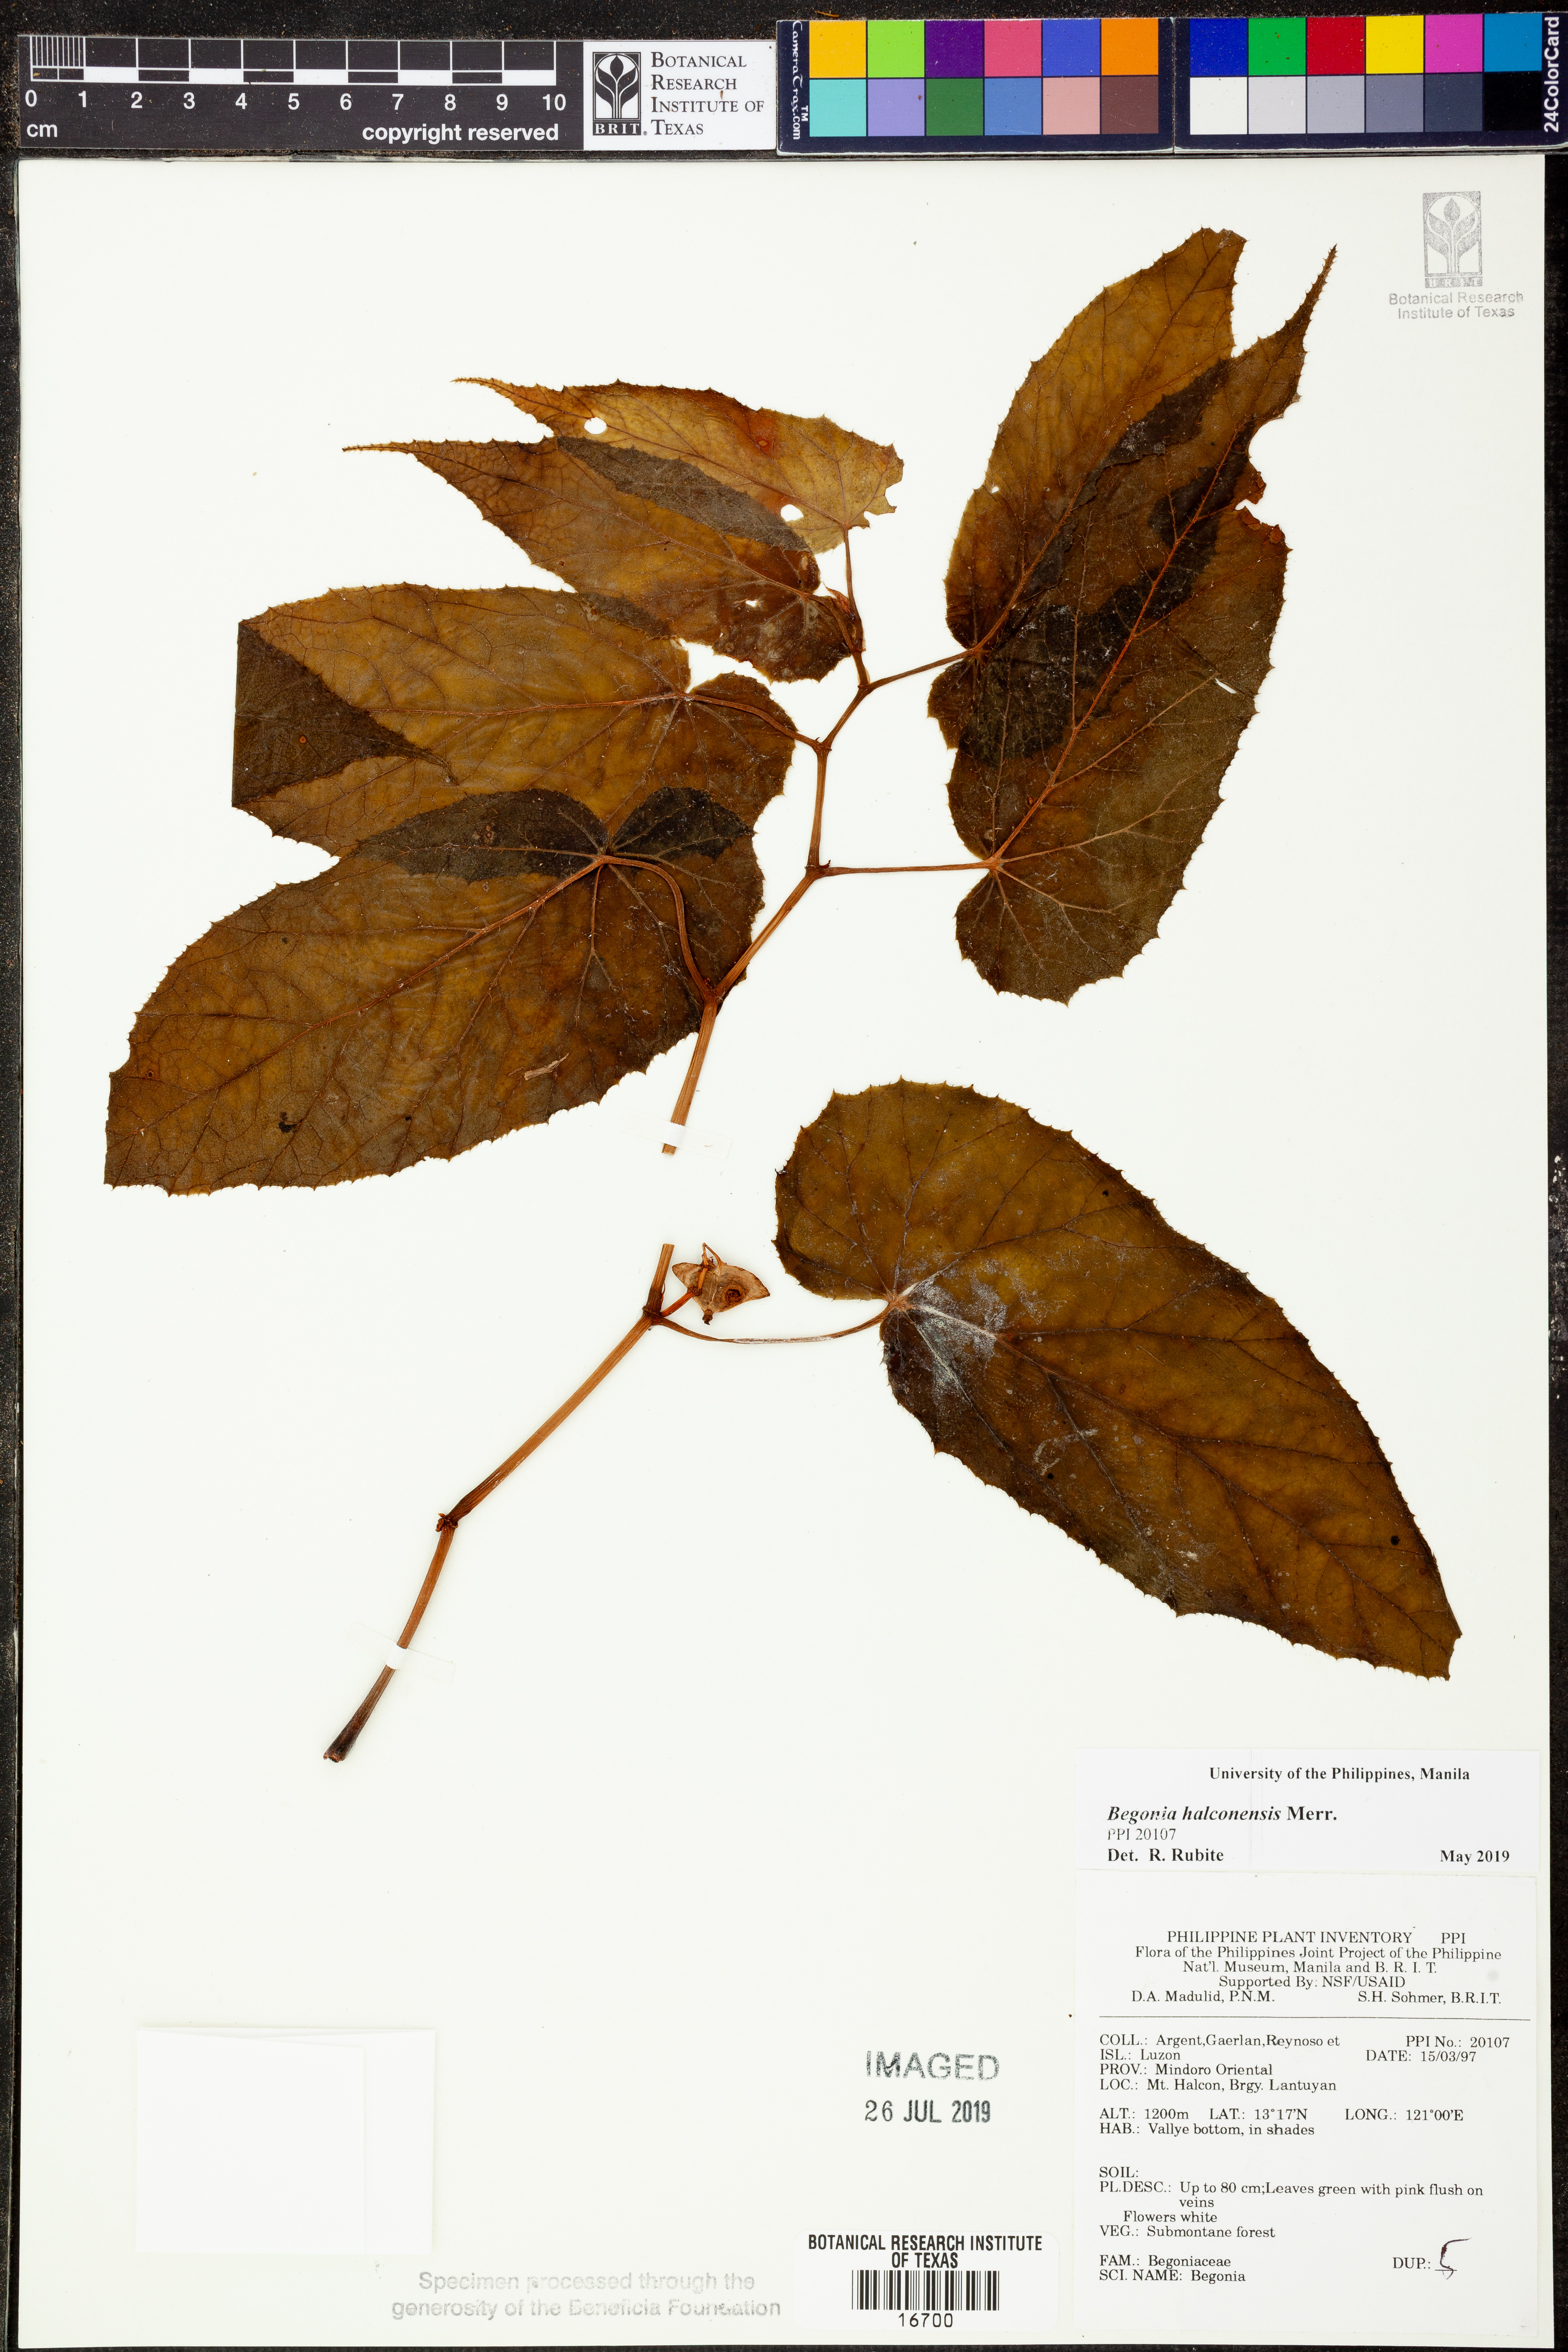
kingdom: Plantae
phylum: Tracheophyta
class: Magnoliopsida
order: Cucurbitales
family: Begoniaceae
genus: Begonia
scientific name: Begonia halconensis
